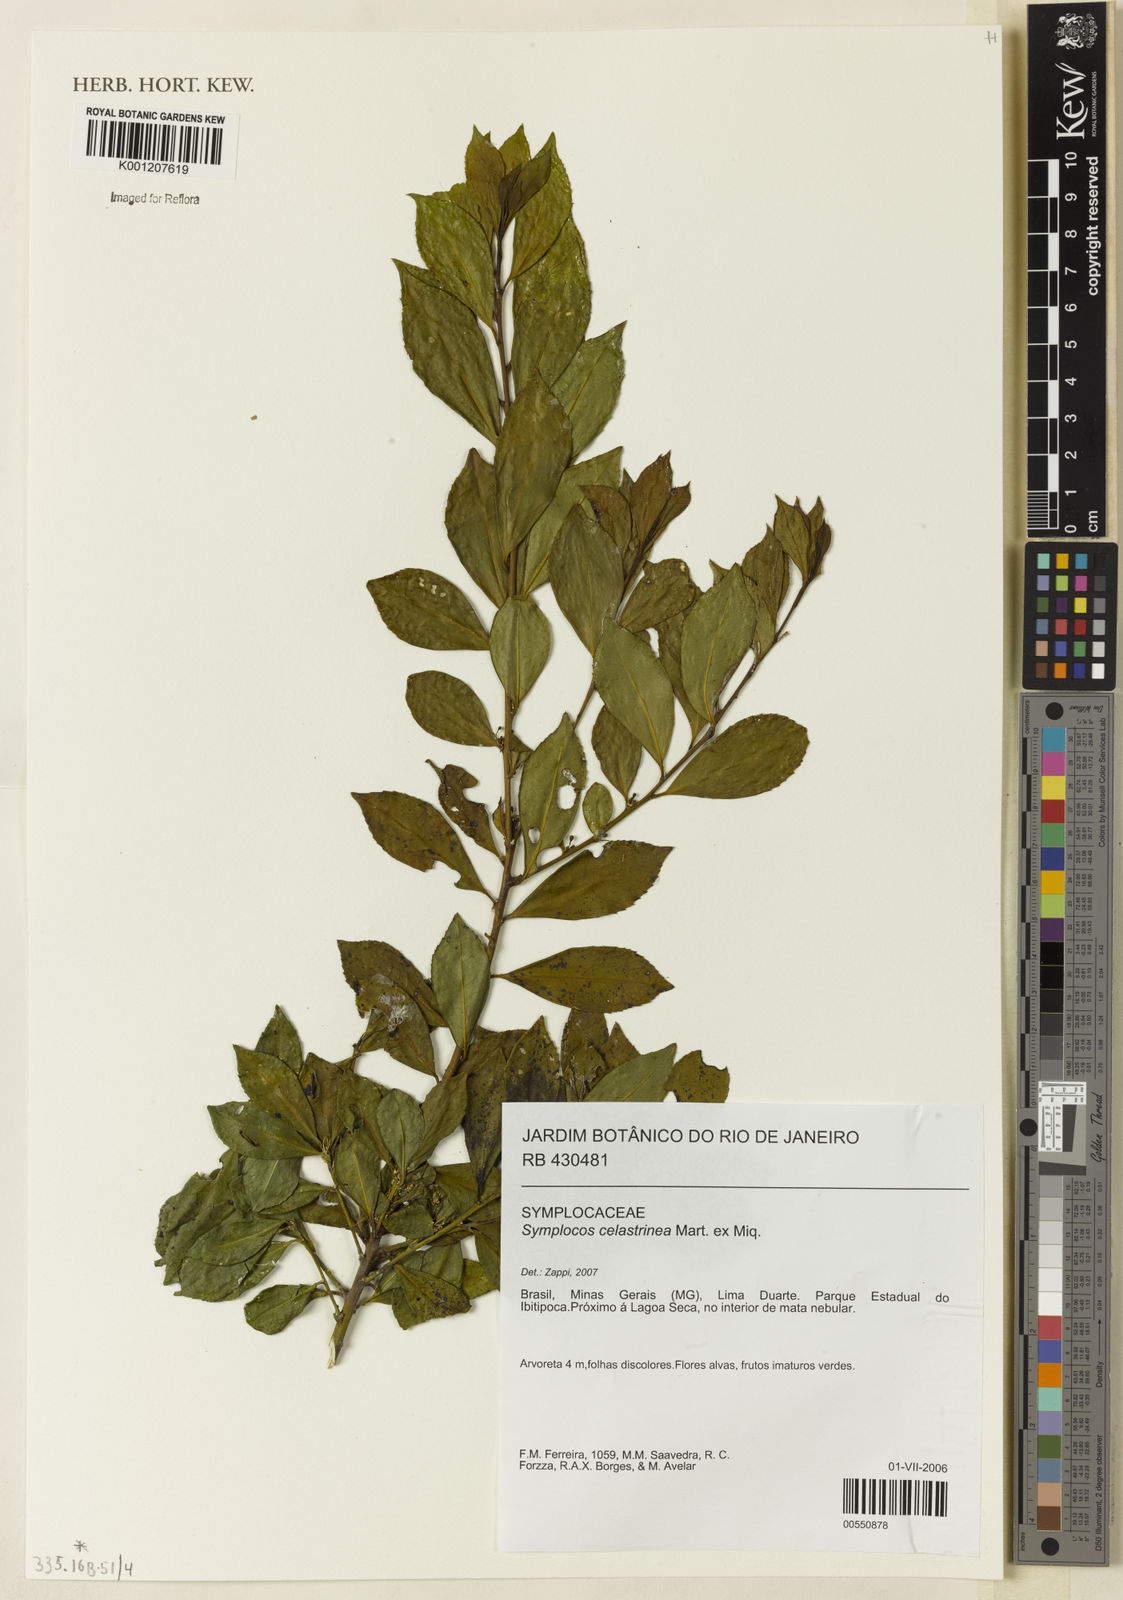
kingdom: Plantae
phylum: Tracheophyta
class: Magnoliopsida
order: Ericales
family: Symplocaceae
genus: Symplocos
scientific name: Symplocos
